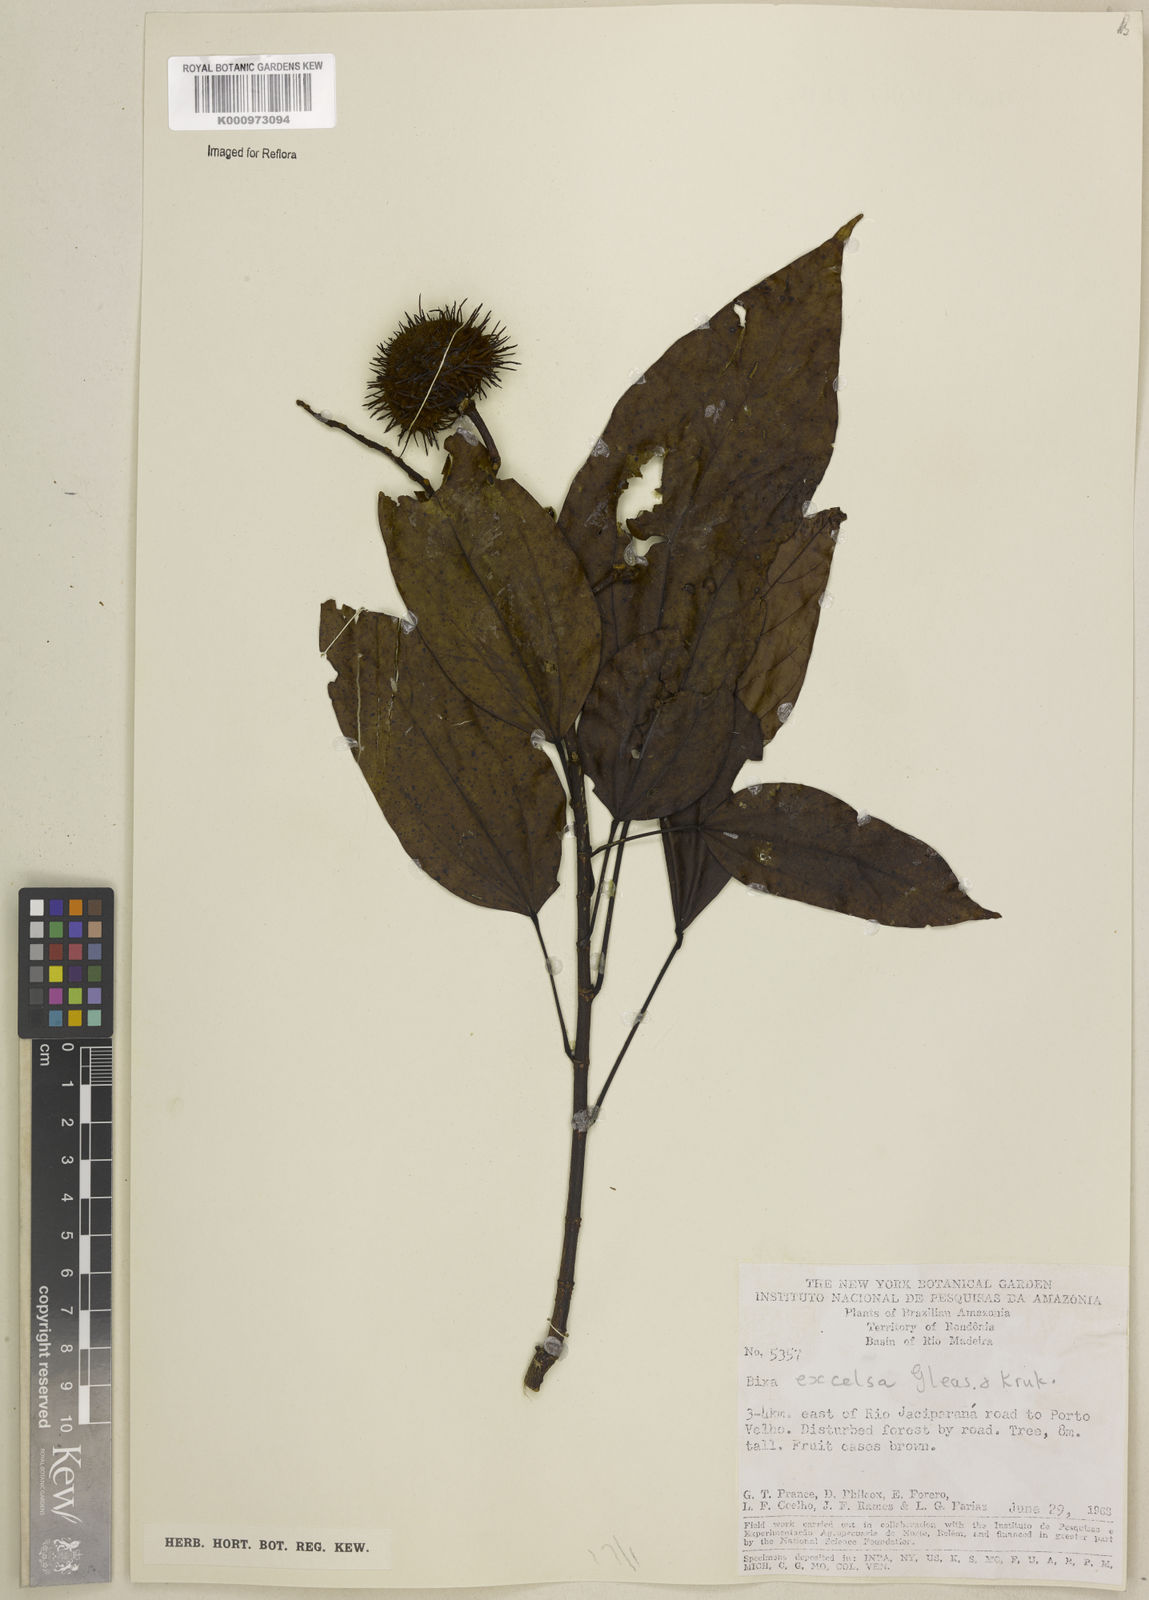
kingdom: Plantae
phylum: Tracheophyta
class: Magnoliopsida
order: Malvales
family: Bixaceae
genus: Bixa
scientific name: Bixa excelsa
